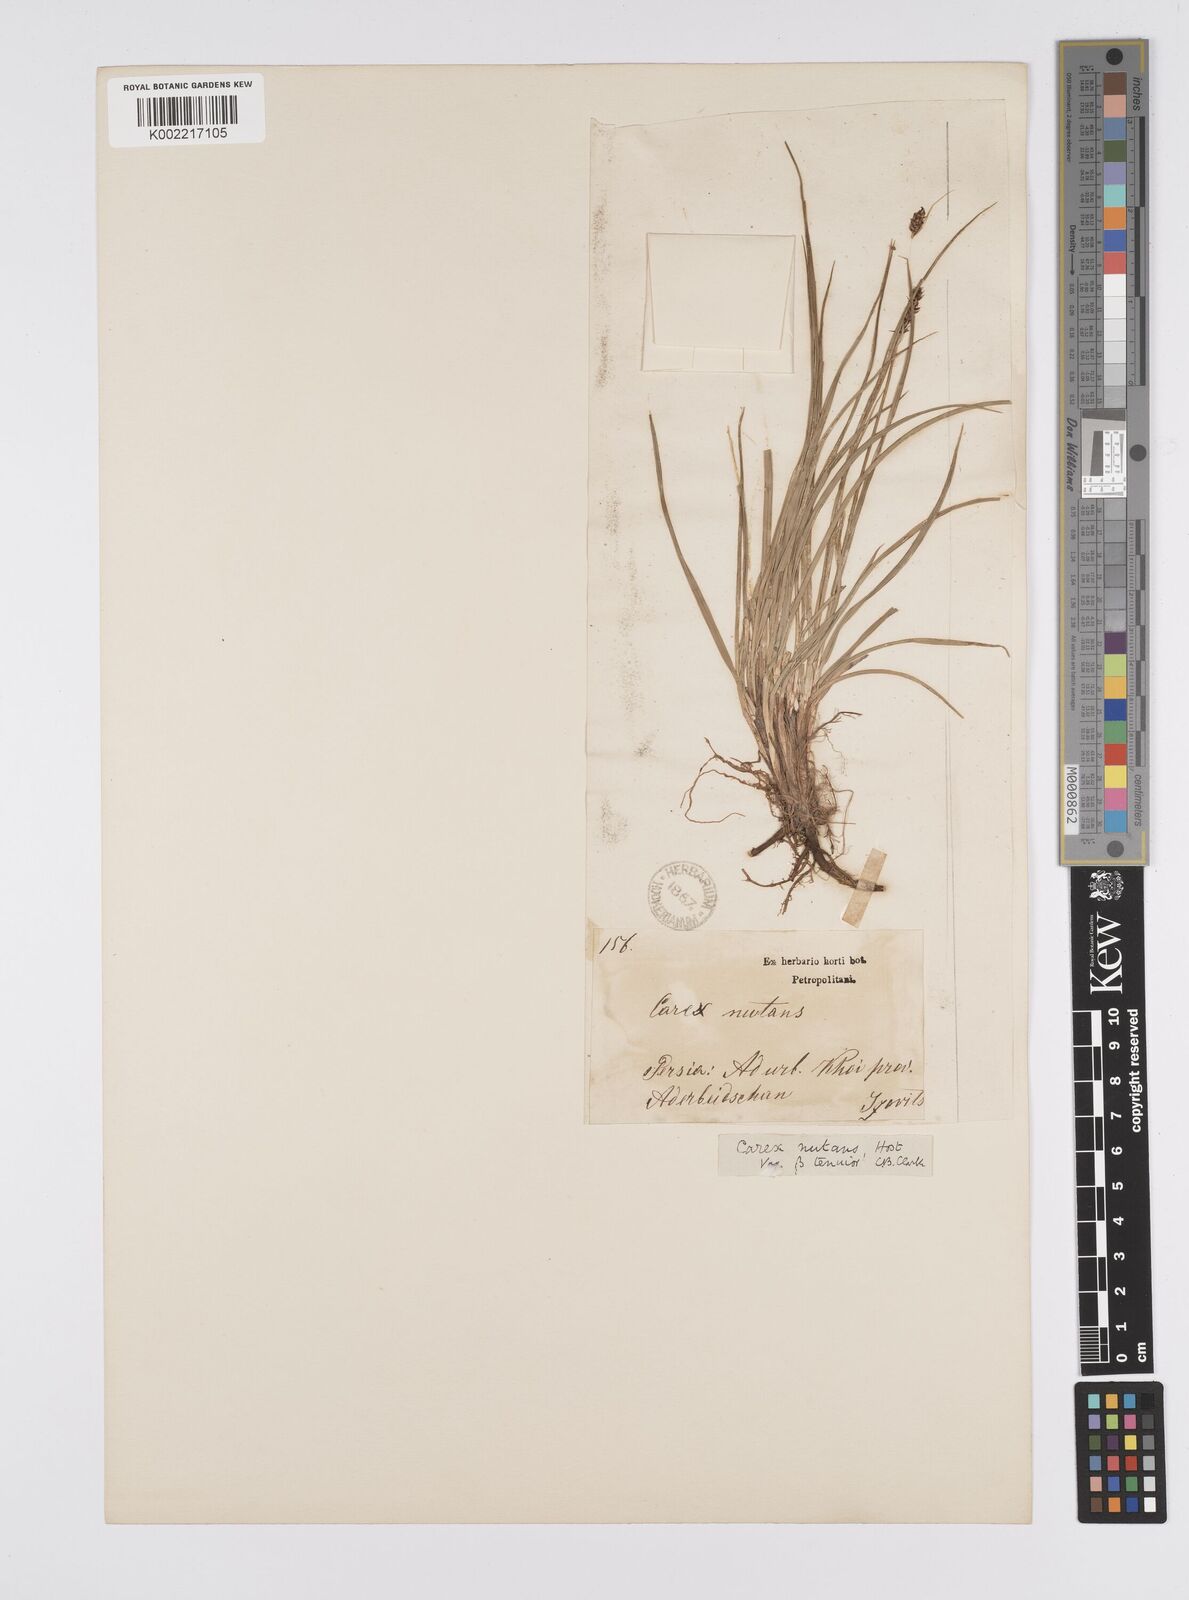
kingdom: Plantae
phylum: Tracheophyta
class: Liliopsida
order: Poales
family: Cyperaceae
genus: Carex
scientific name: Carex melanostachya
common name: Black-spiked sedge
